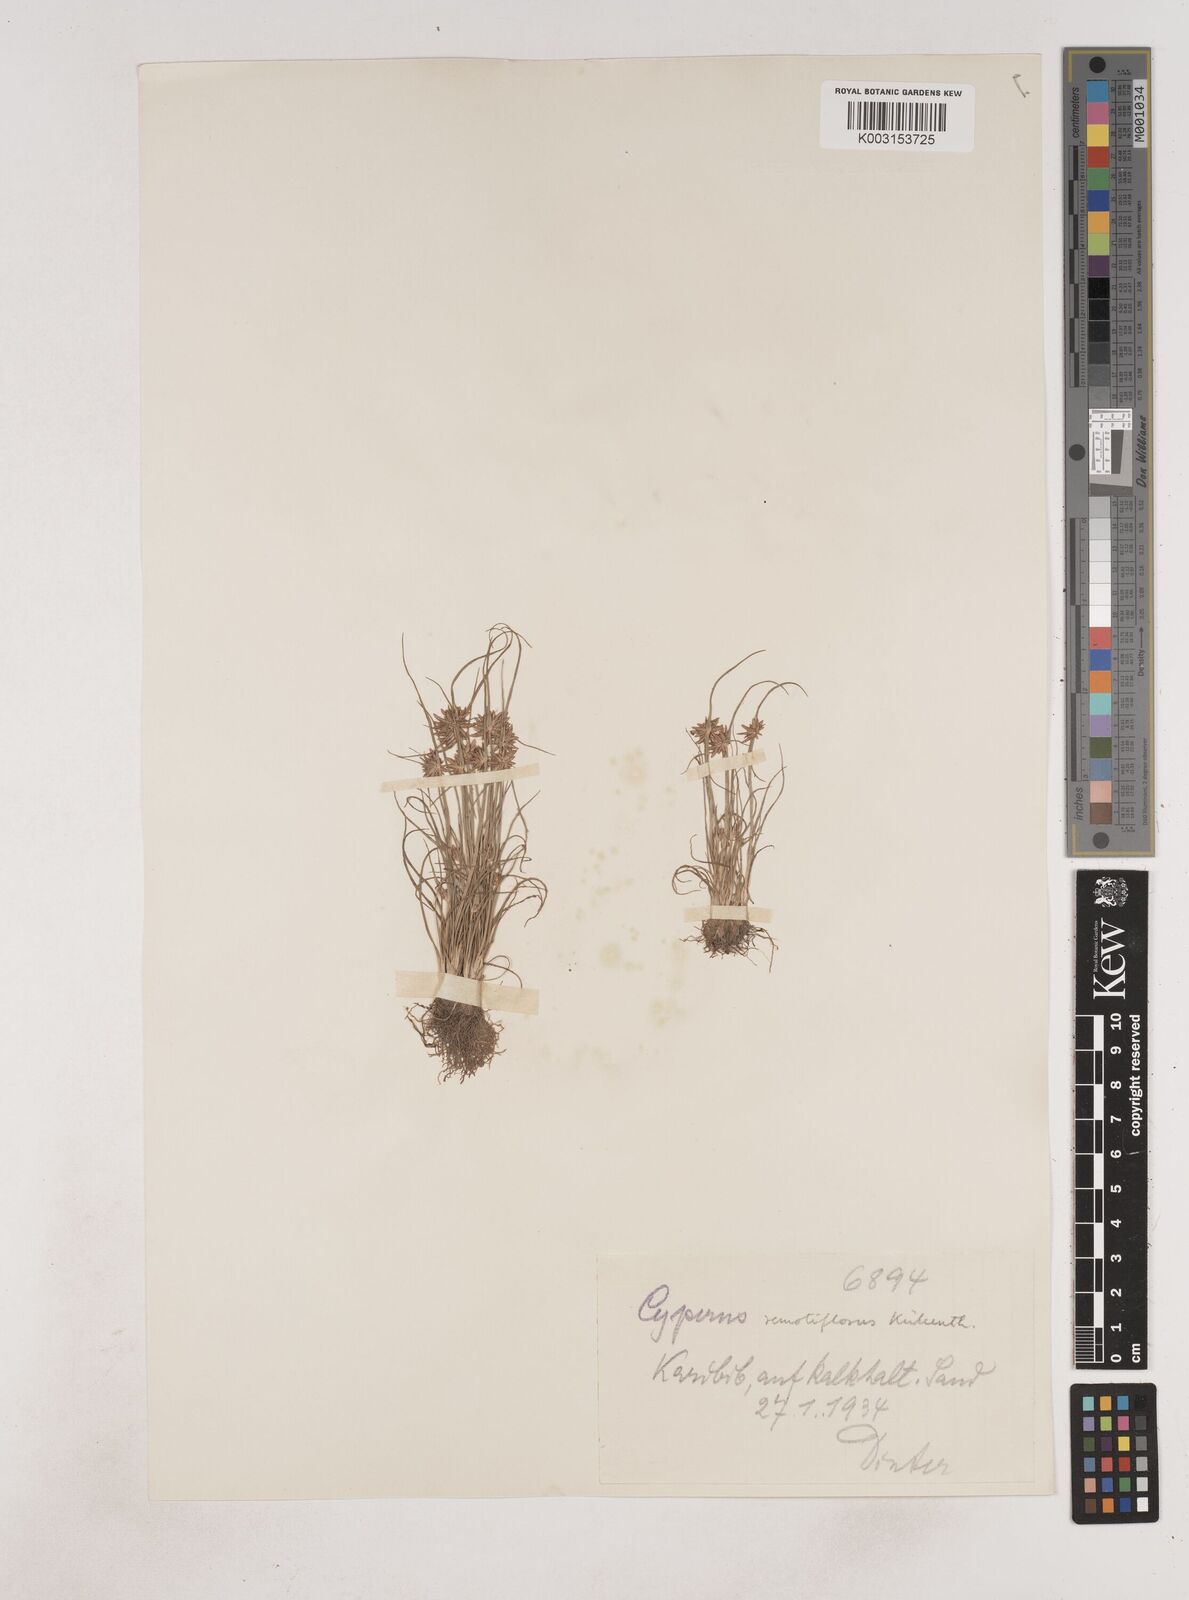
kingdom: Plantae
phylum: Tracheophyta
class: Liliopsida
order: Poales
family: Cyperaceae
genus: Cyperus
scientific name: Cyperus remotiflorus
